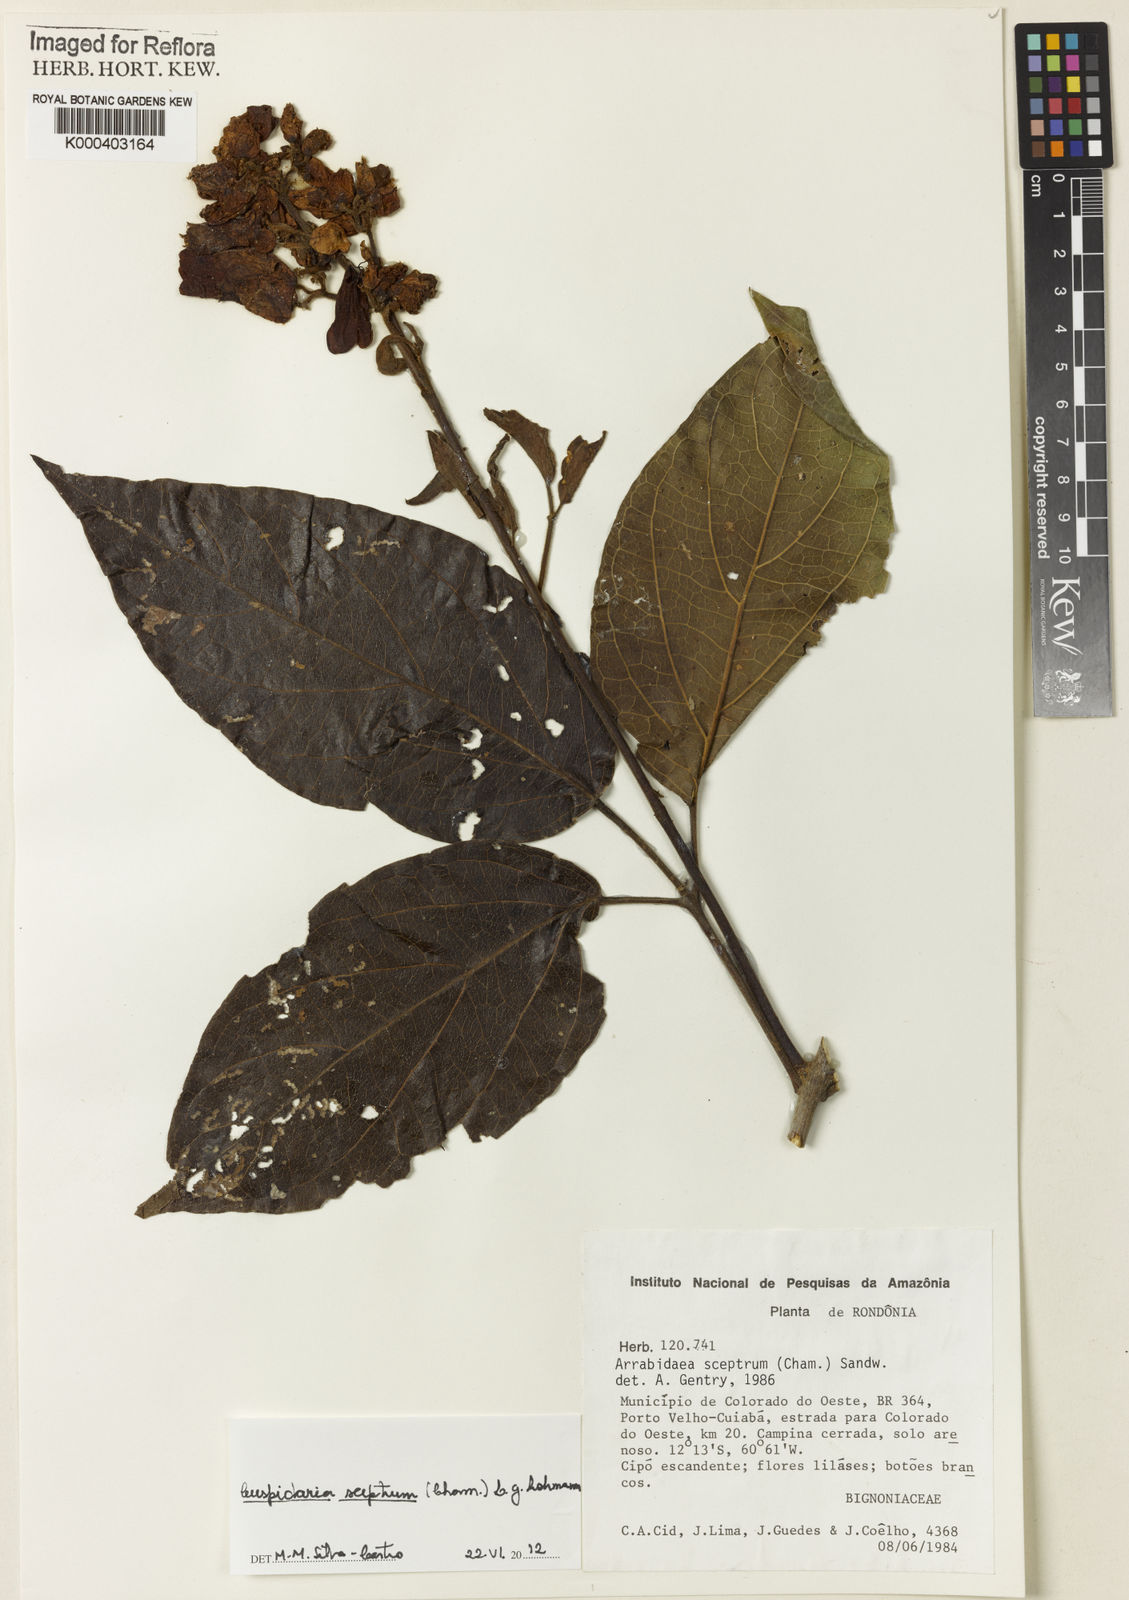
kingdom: Plantae
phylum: Tracheophyta
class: Magnoliopsida
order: Lamiales
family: Bignoniaceae
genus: Cuspidaria
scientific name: Cuspidaria sceptrum
